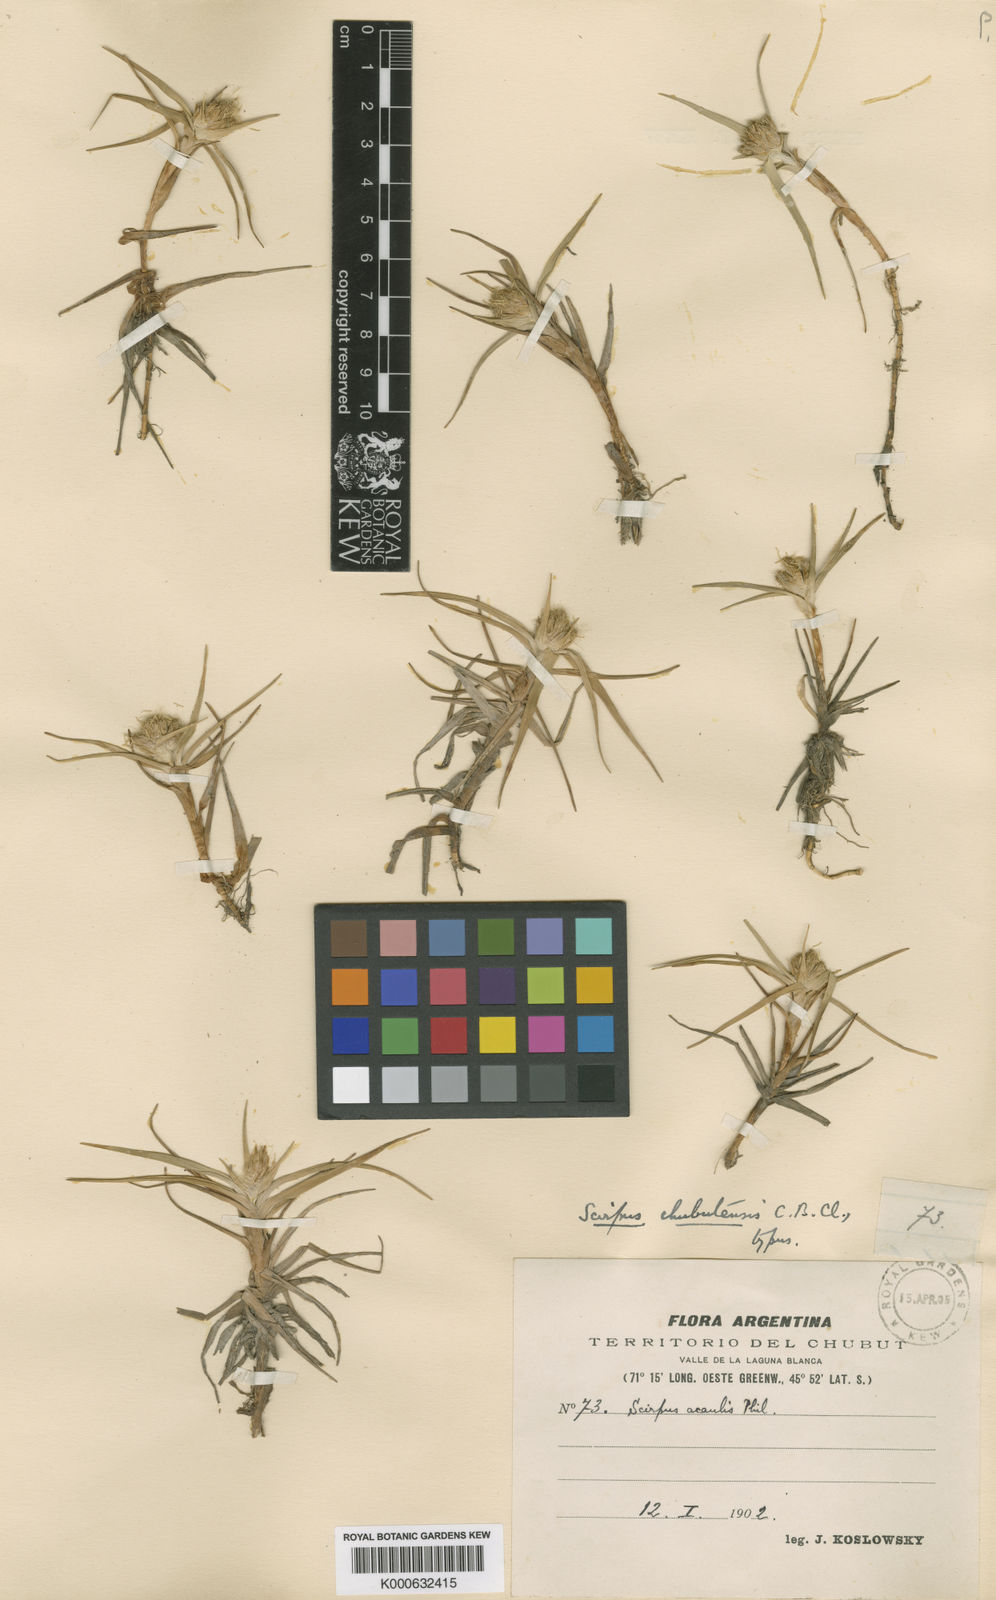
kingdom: Plantae
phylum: Tracheophyta
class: Liliopsida
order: Poales
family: Cyperaceae
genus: Schoenoplectus
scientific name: Schoenoplectus
